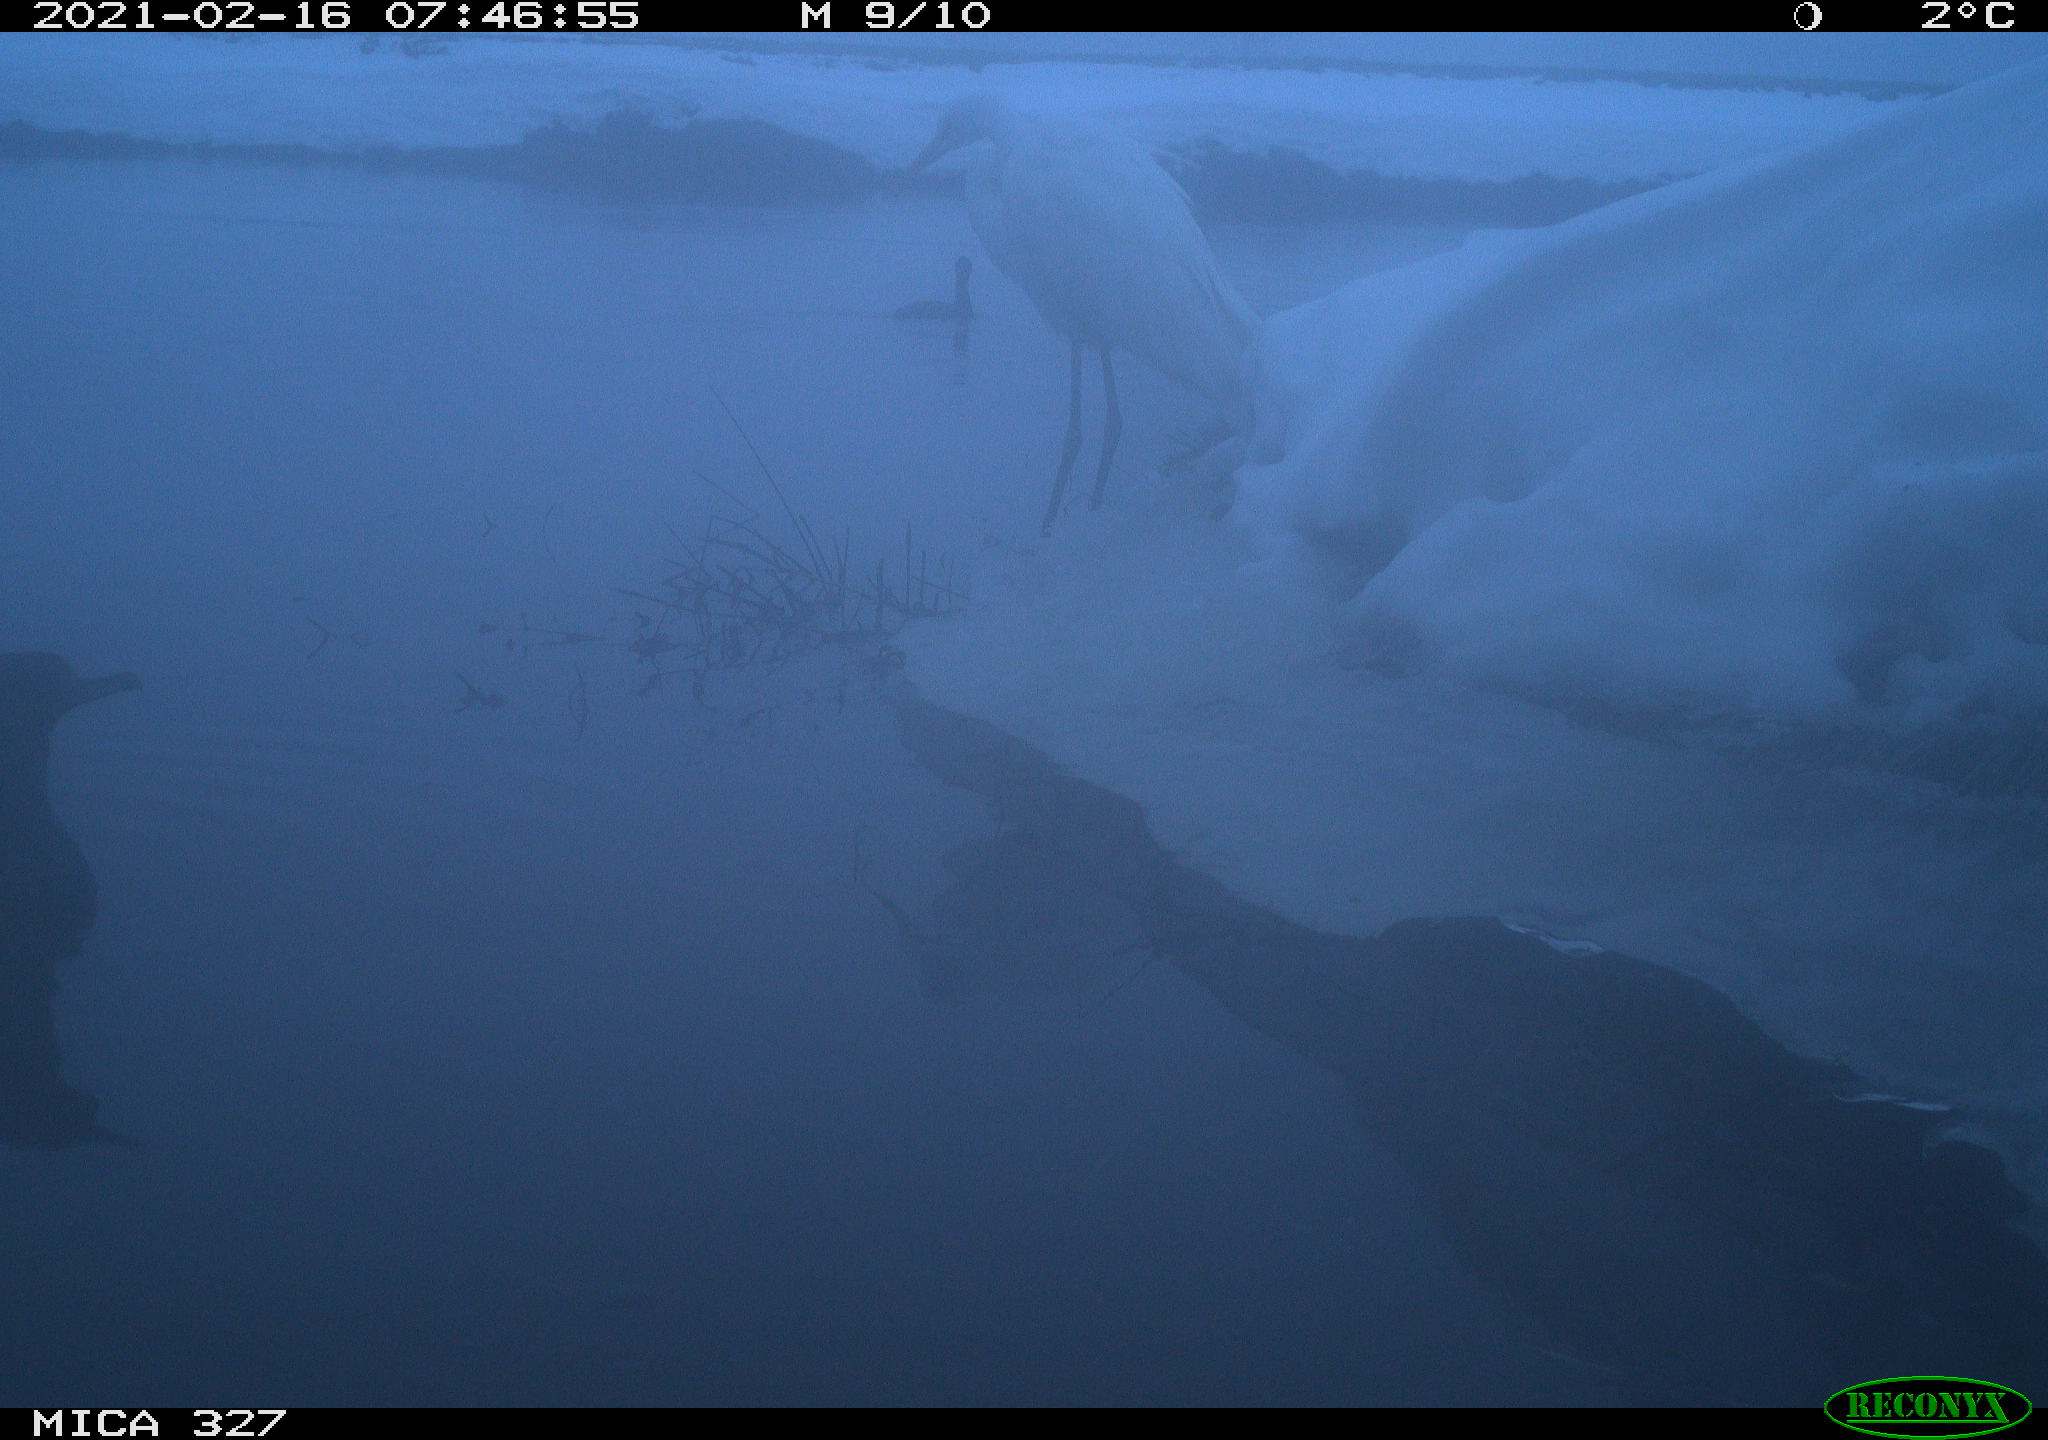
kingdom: Animalia
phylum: Chordata
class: Aves
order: Pelecaniformes
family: Ardeidae
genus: Ardea
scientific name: Ardea alba
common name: Great egret
